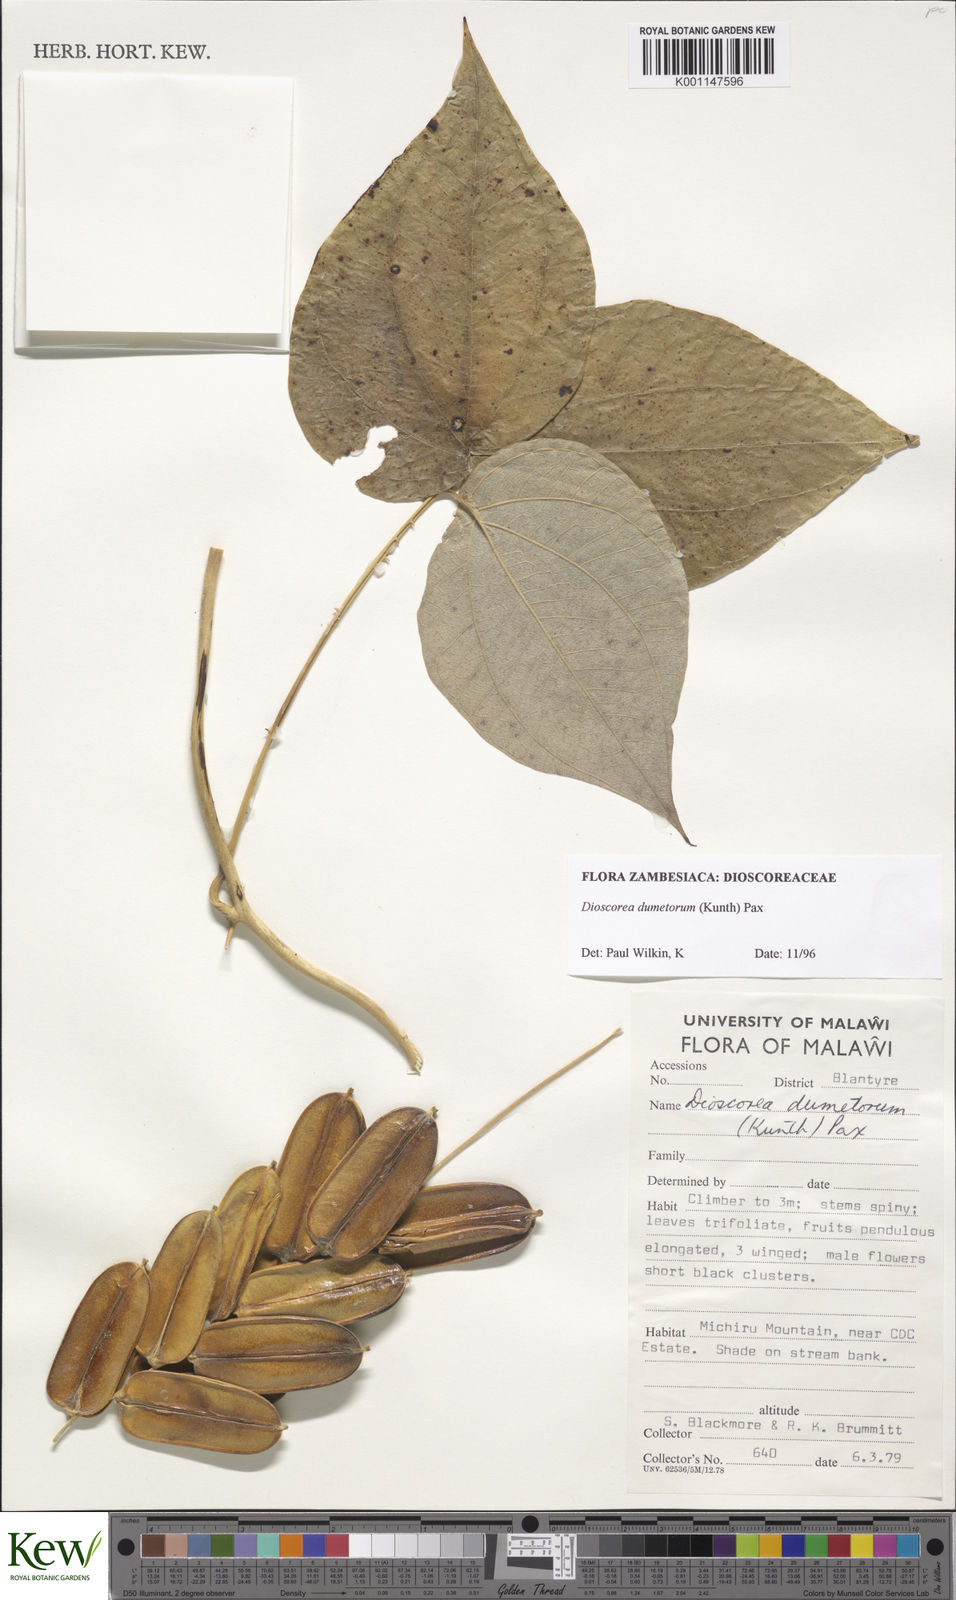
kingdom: Plantae
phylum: Tracheophyta
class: Liliopsida
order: Dioscoreales
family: Dioscoreaceae
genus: Dioscorea
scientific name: Dioscorea dumetorum
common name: African bitter yam
